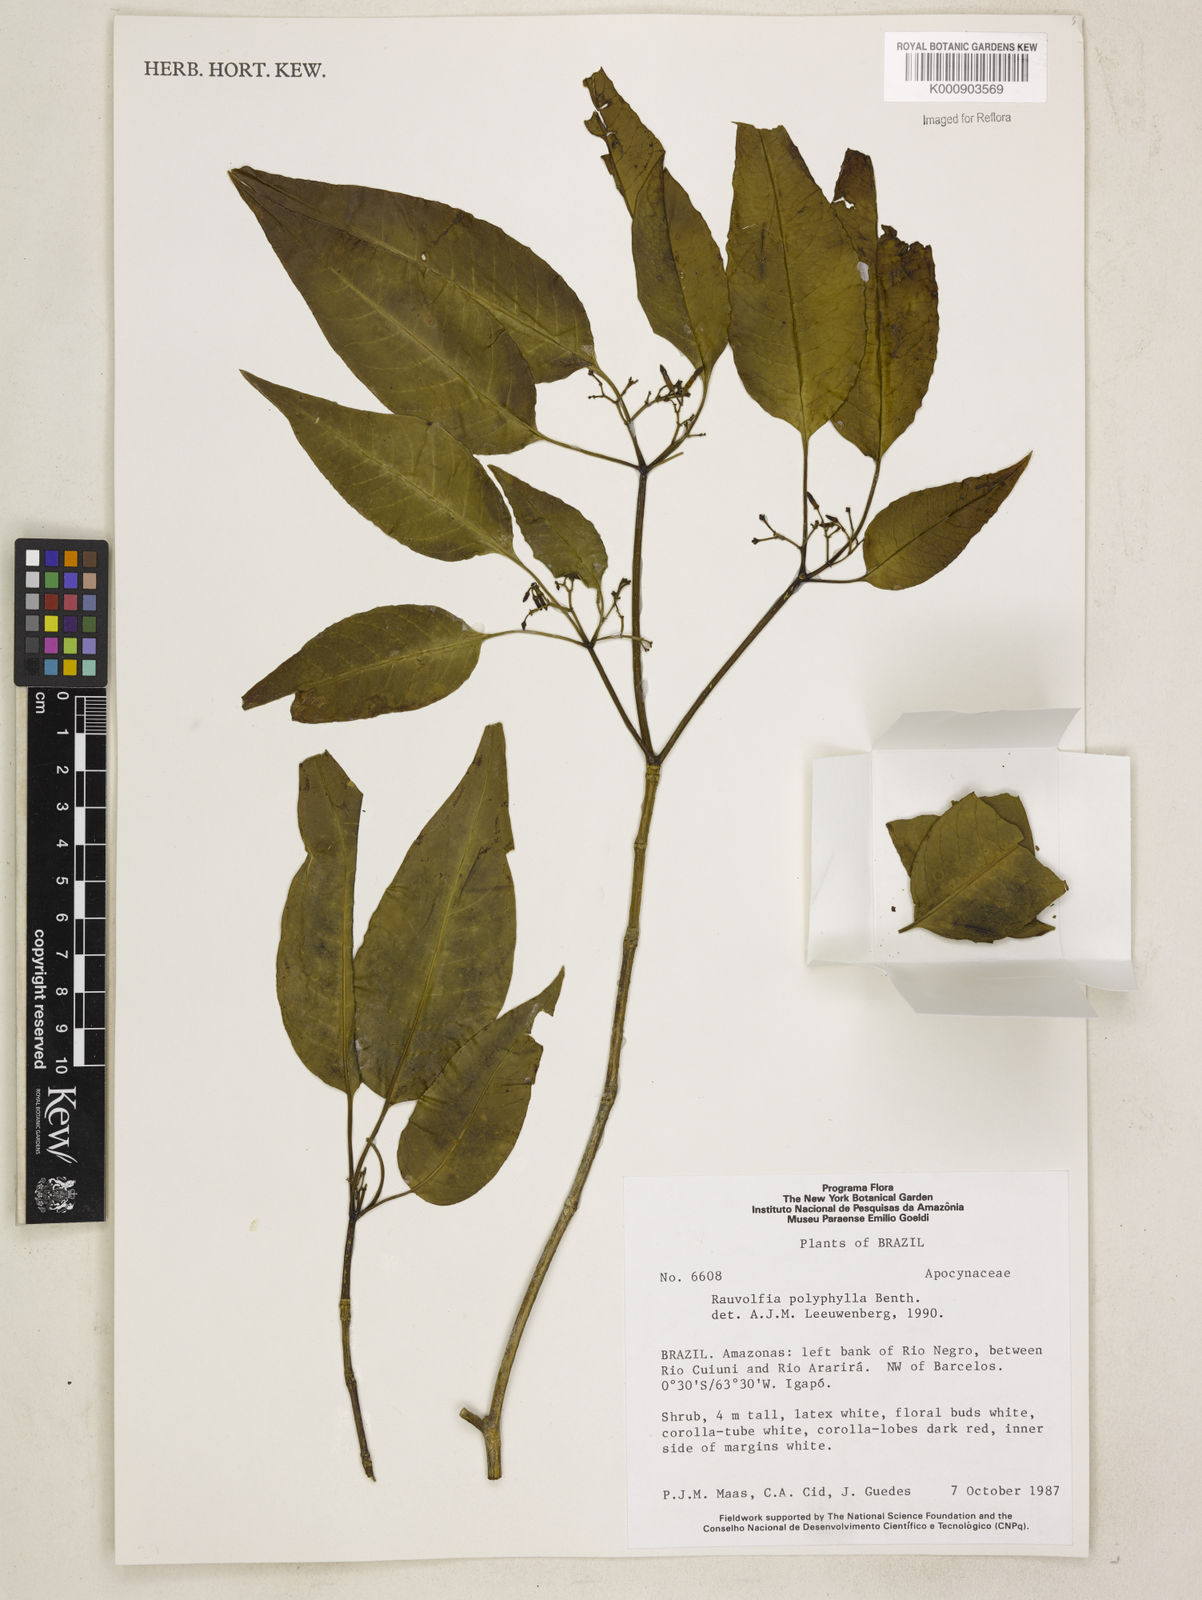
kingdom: Plantae
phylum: Tracheophyta
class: Magnoliopsida
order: Gentianales
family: Apocynaceae
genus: Rauvolfia
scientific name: Rauvolfia polyphylla
